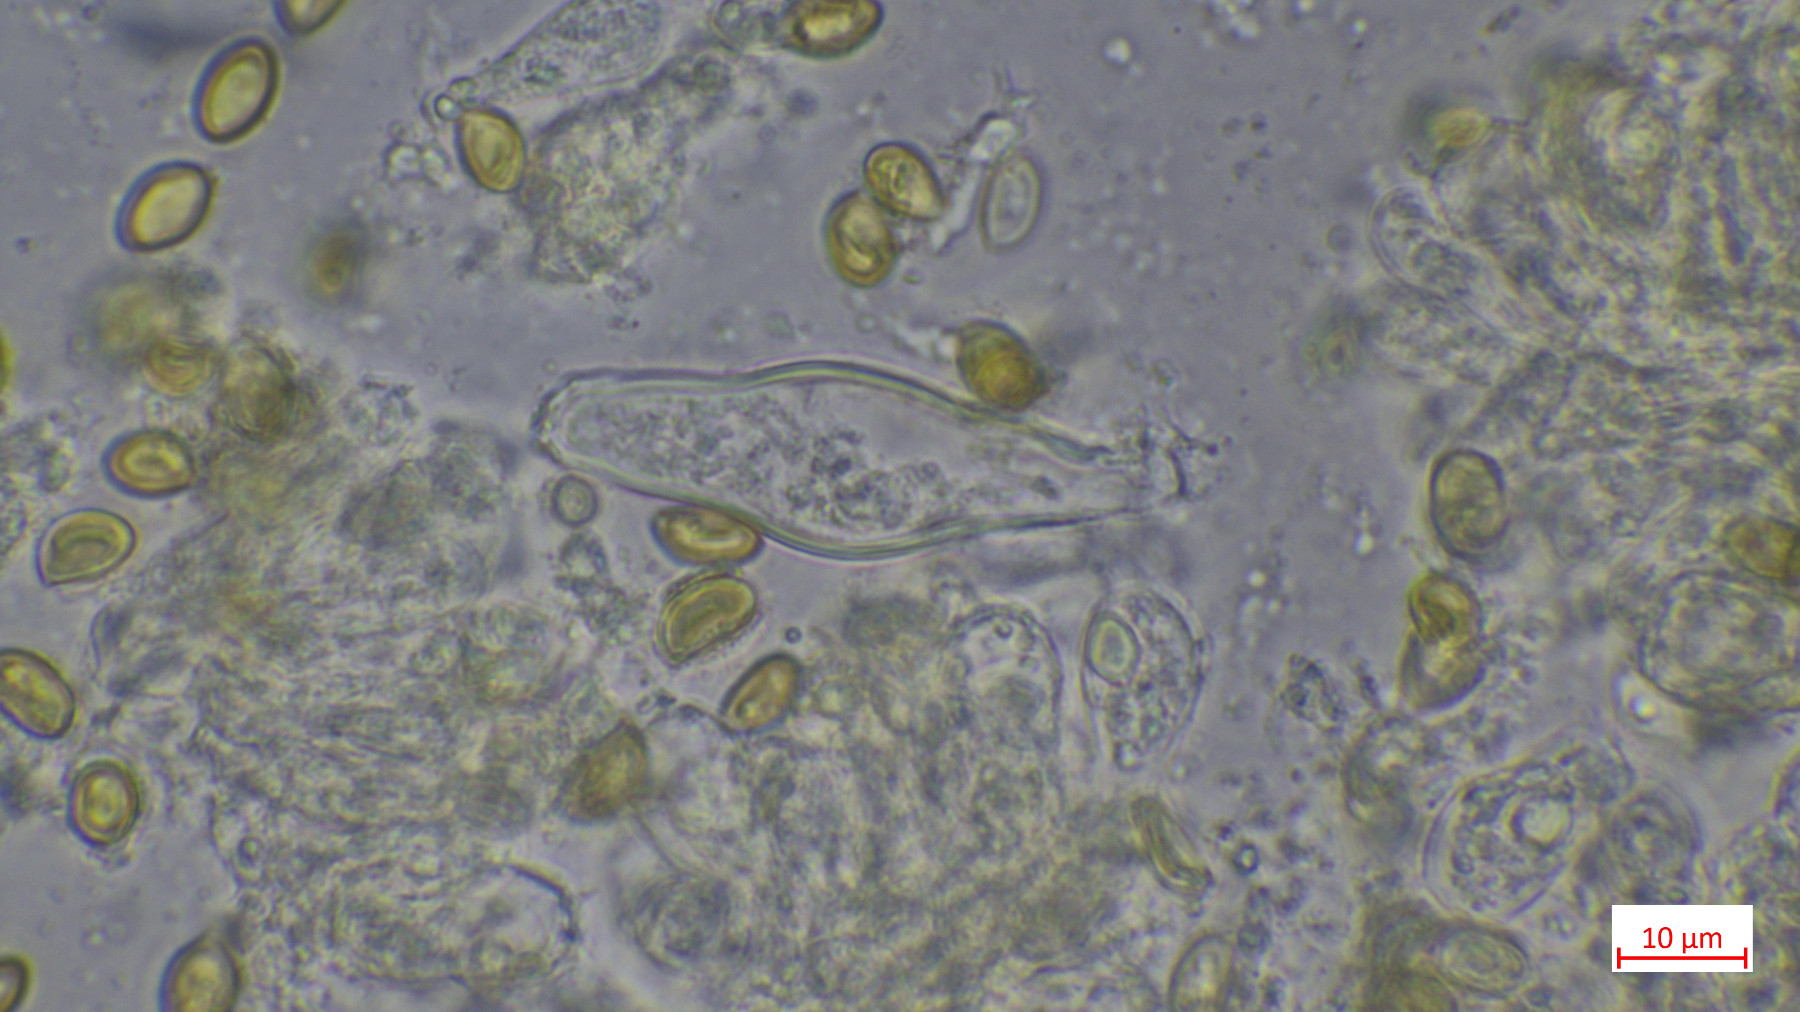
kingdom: Fungi
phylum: Basidiomycota
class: Agaricomycetes
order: Agaricales
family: Inocybaceae
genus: Inocybe
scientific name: Inocybe
